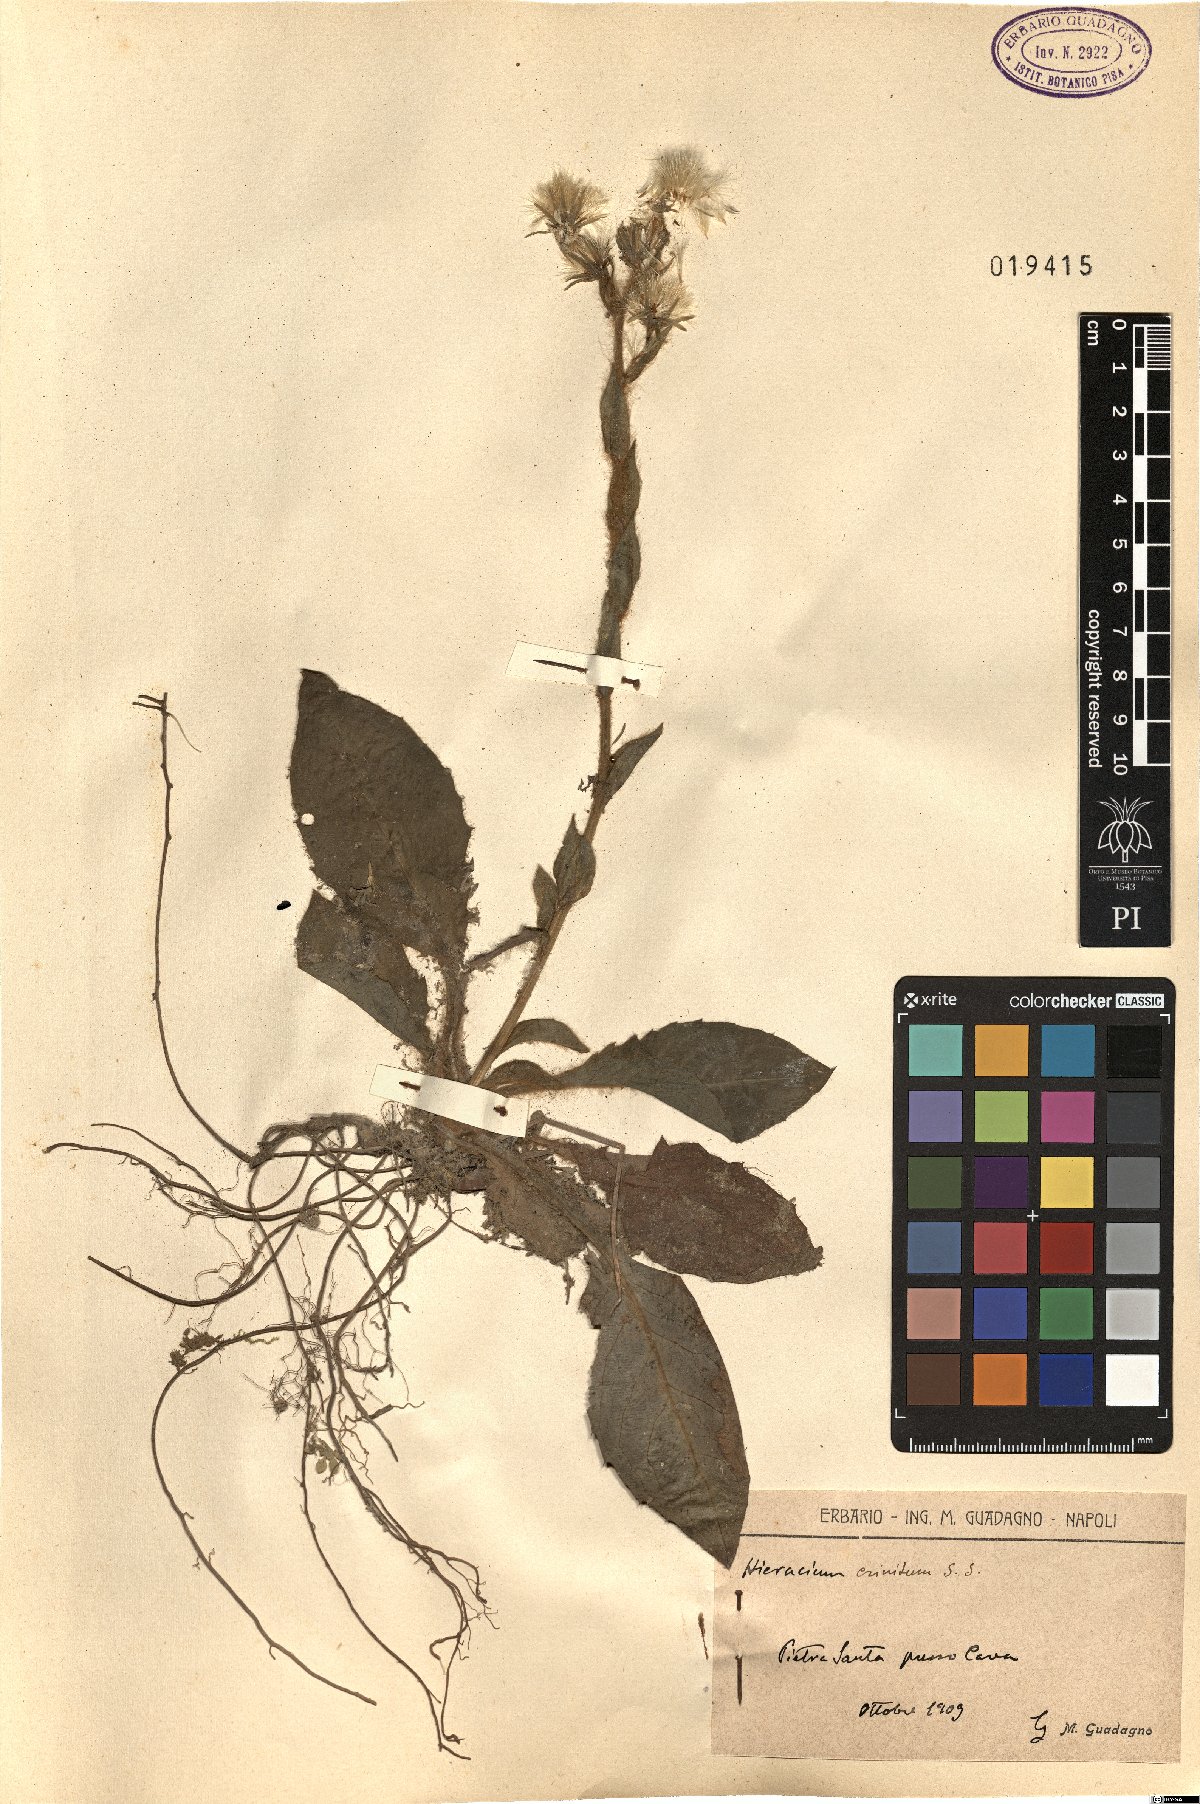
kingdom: Plantae
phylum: Tracheophyta
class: Magnoliopsida
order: Asterales
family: Asteraceae
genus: Hieracium
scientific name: Hieracium racemosum
